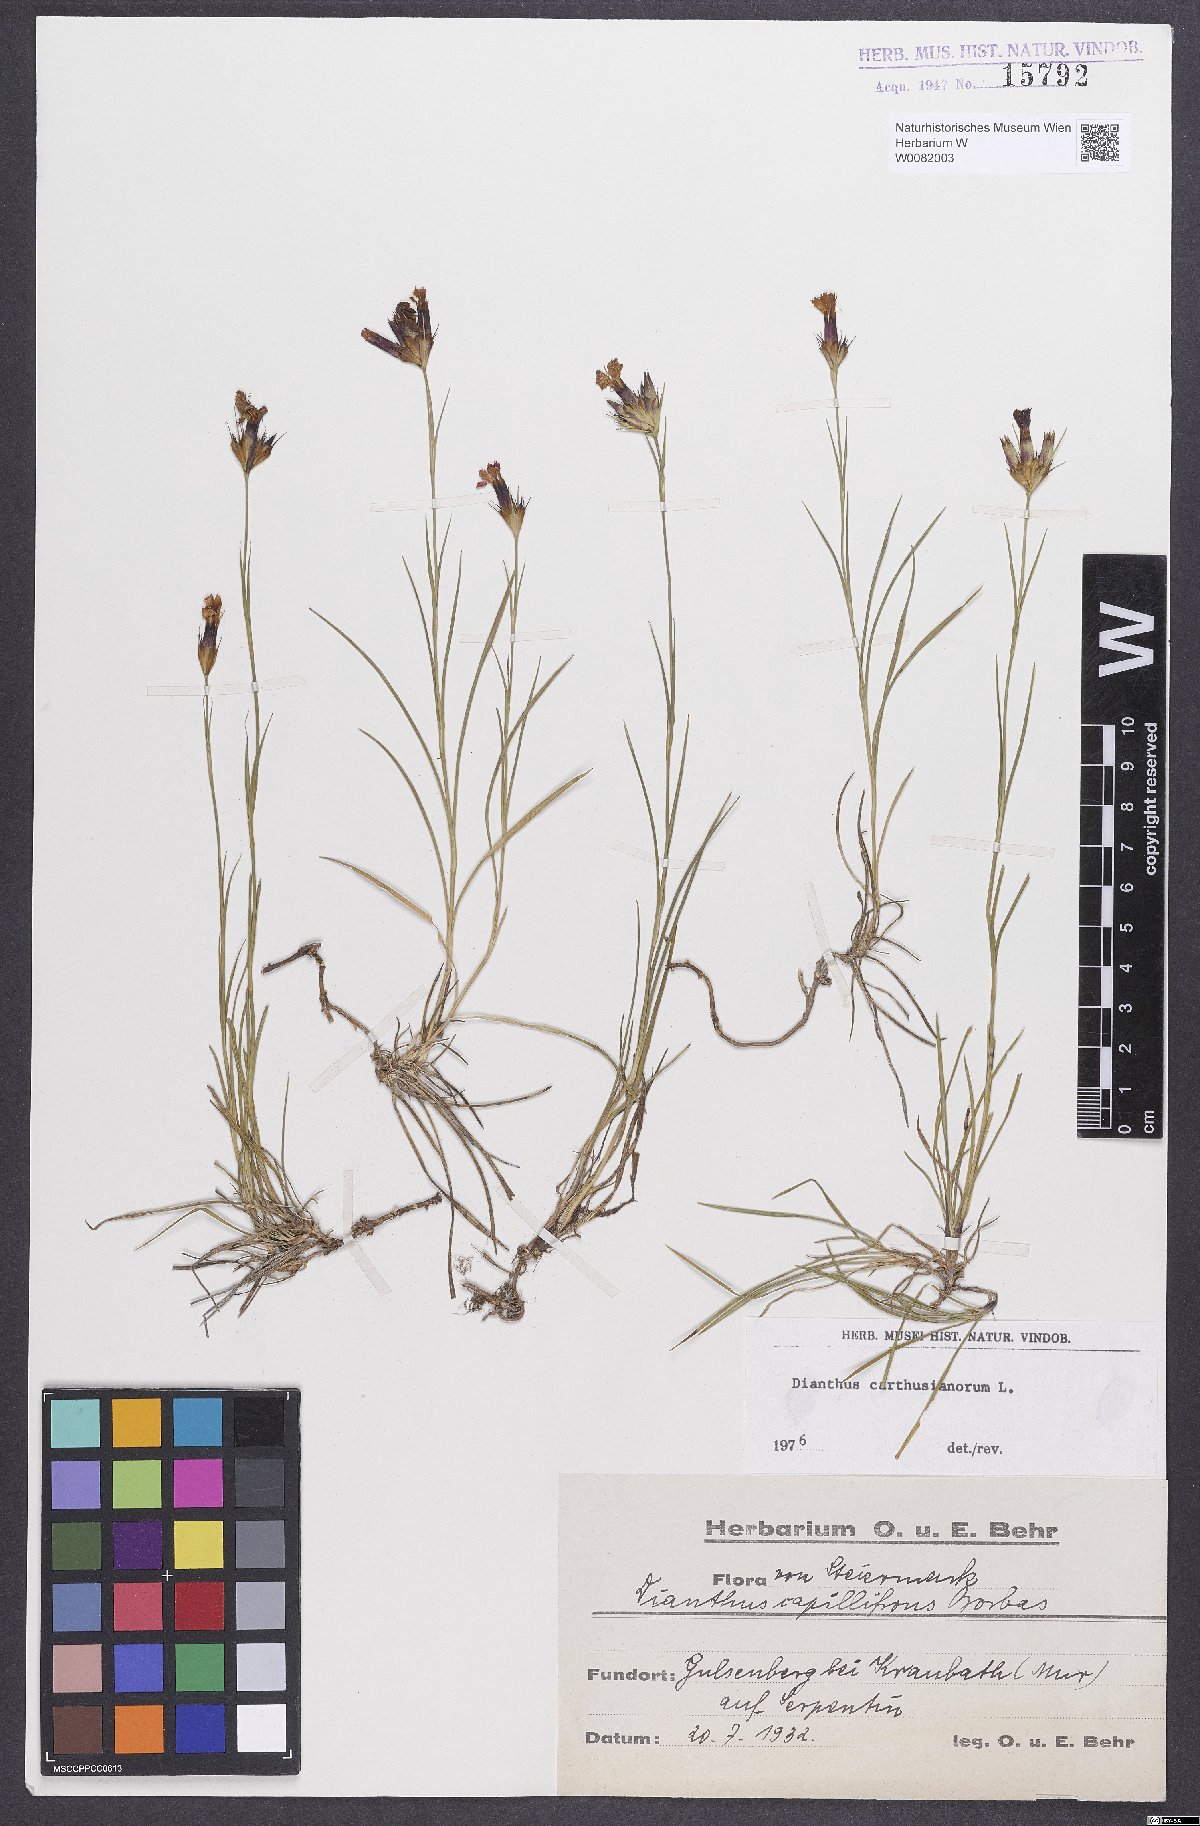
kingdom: Plantae
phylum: Tracheophyta
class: Magnoliopsida
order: Caryophyllales
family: Caryophyllaceae
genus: Dianthus
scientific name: Dianthus carthusianorum
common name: Carthusian pink
